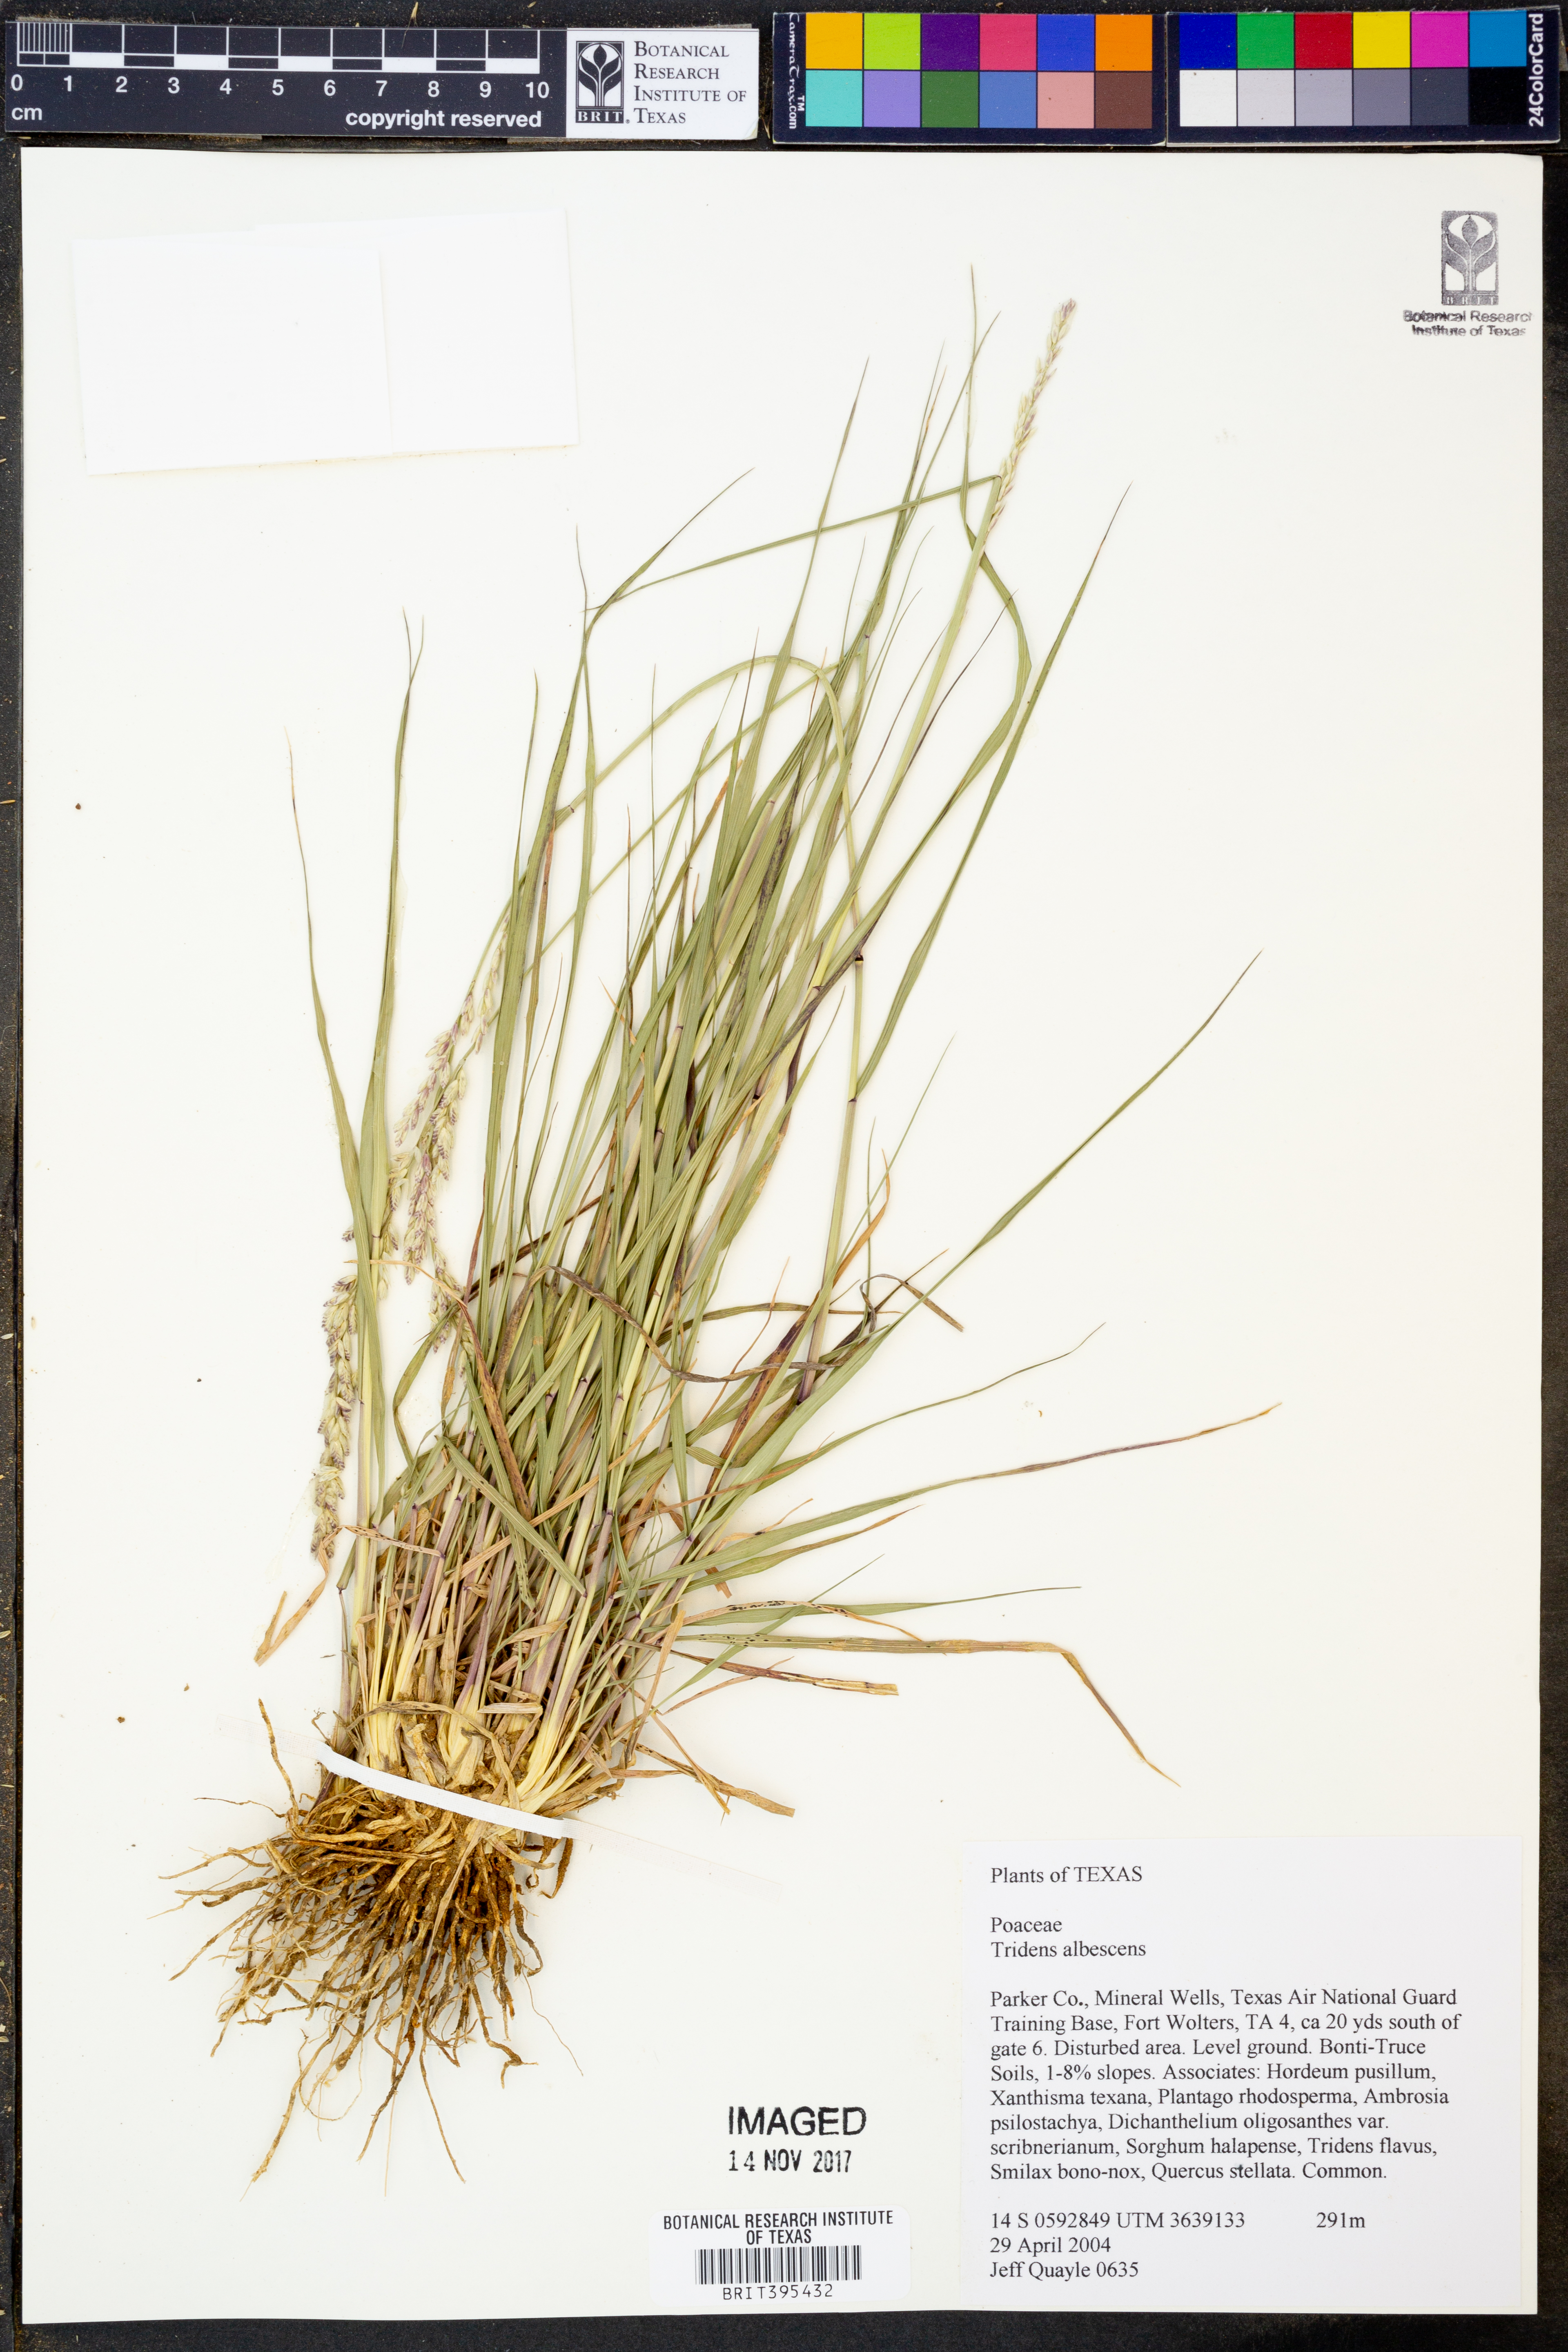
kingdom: Plantae
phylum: Tracheophyta
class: Liliopsida
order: Poales
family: Poaceae
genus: Tridens
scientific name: Tridens albescens
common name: White tridens
